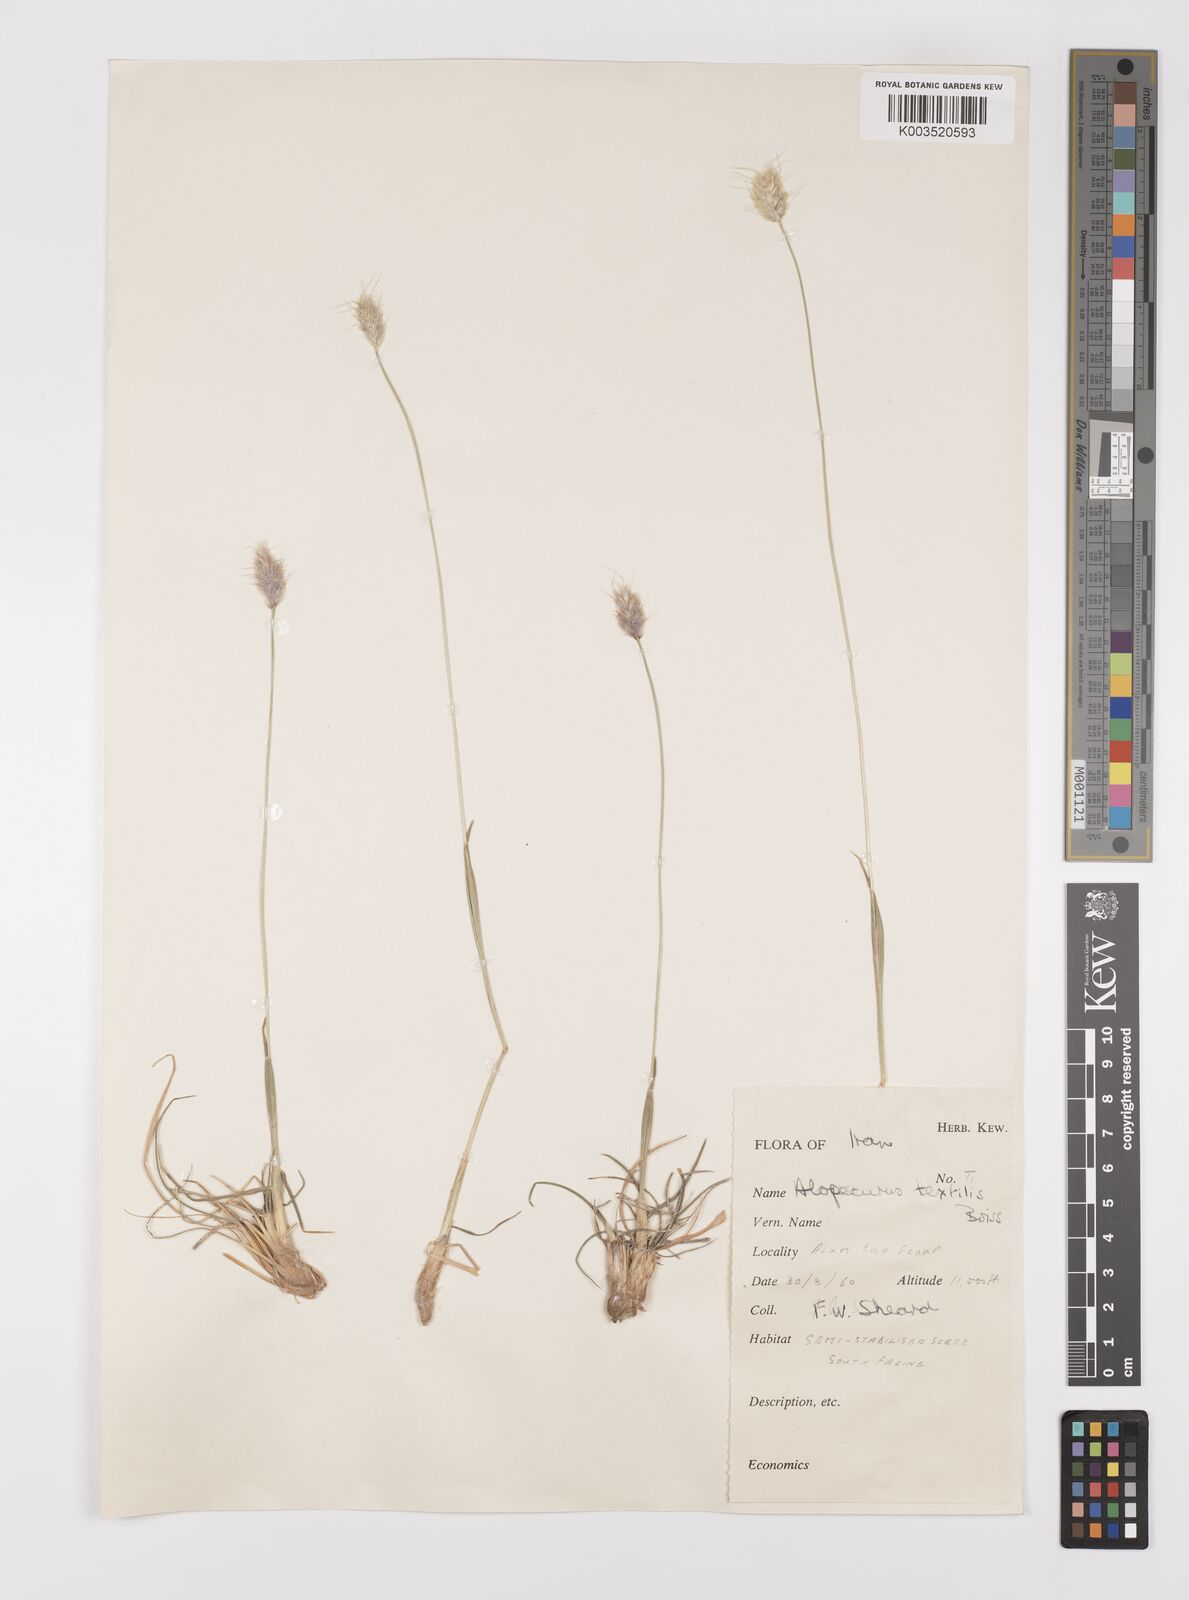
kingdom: Plantae
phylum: Tracheophyta
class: Liliopsida
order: Poales
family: Poaceae
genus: Alopecurus
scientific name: Alopecurus textilis
